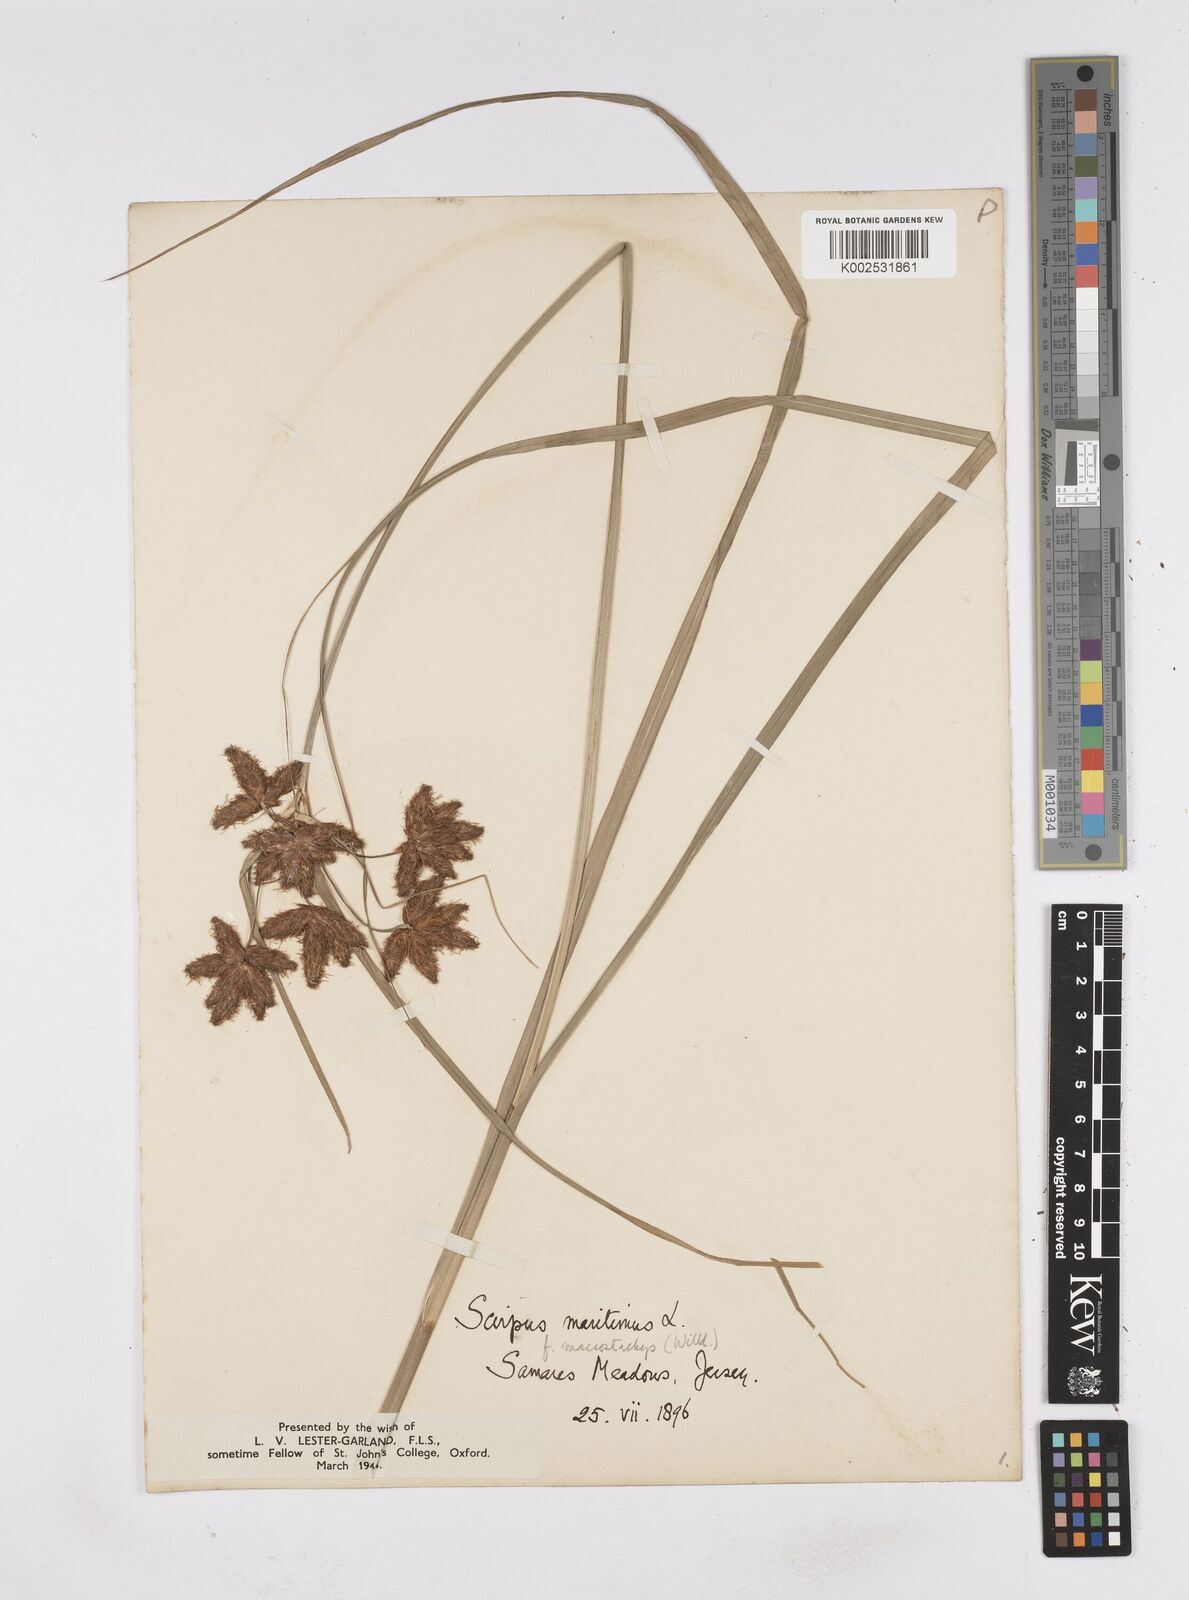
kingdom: Plantae
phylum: Tracheophyta
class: Liliopsida
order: Poales
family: Cyperaceae
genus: Bolboschoenus
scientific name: Bolboschoenus maritimus
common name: Sea club-rush
